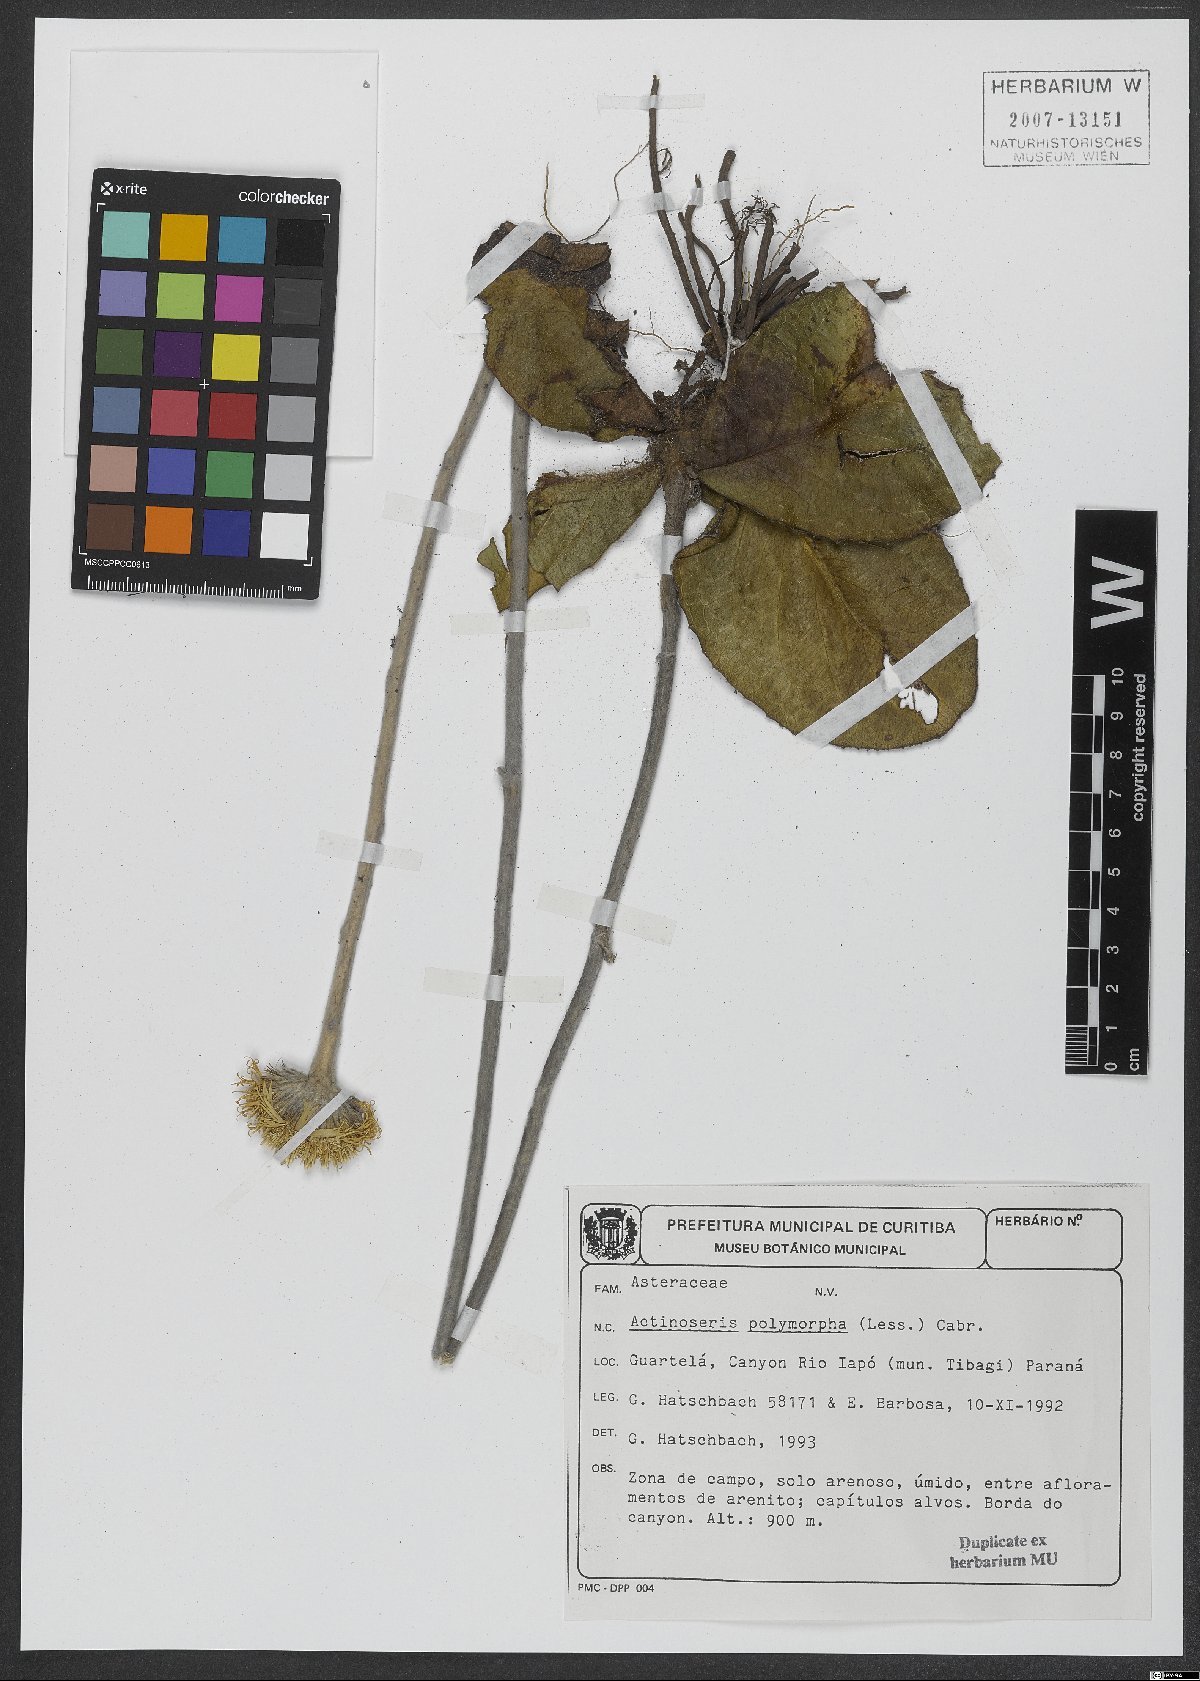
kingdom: Plantae
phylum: Tracheophyta
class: Magnoliopsida
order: Asterales
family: Asteraceae
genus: Richterago
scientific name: Richterago polymorpha
